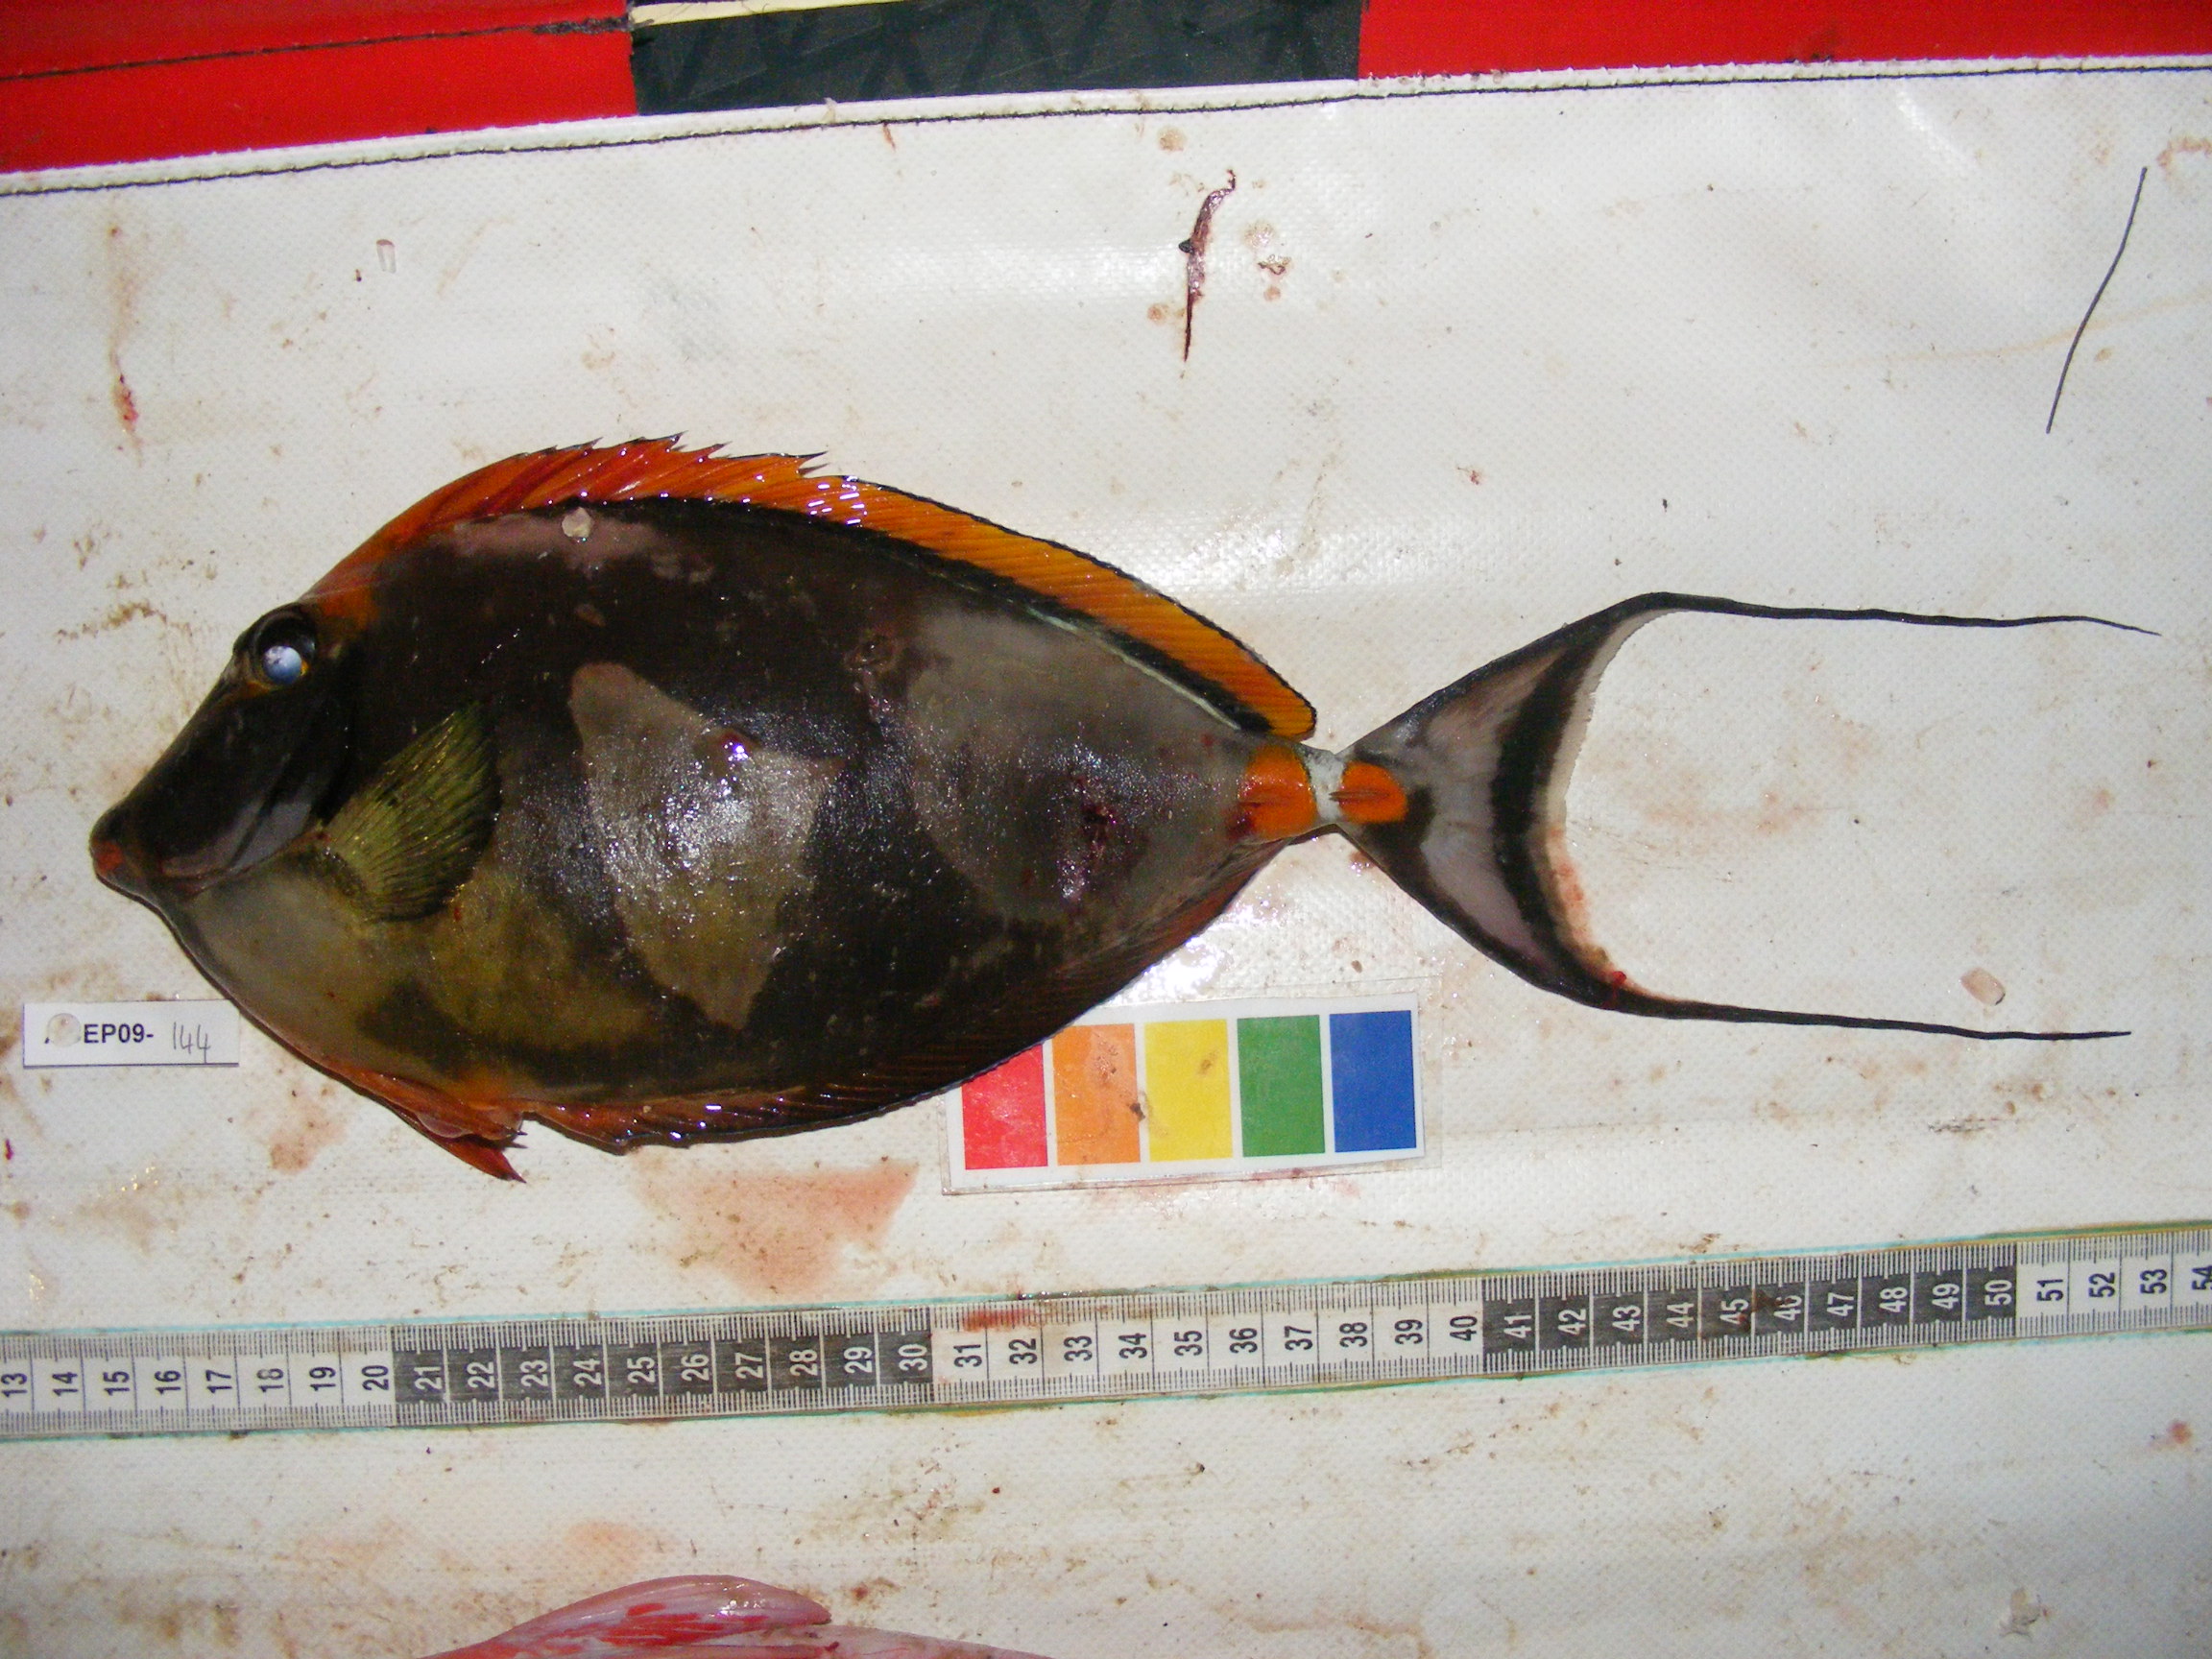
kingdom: Animalia
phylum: Chordata
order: Perciformes
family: Acanthuridae
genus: Naso
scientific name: Naso lituratus
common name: Orangespine unicornfish
